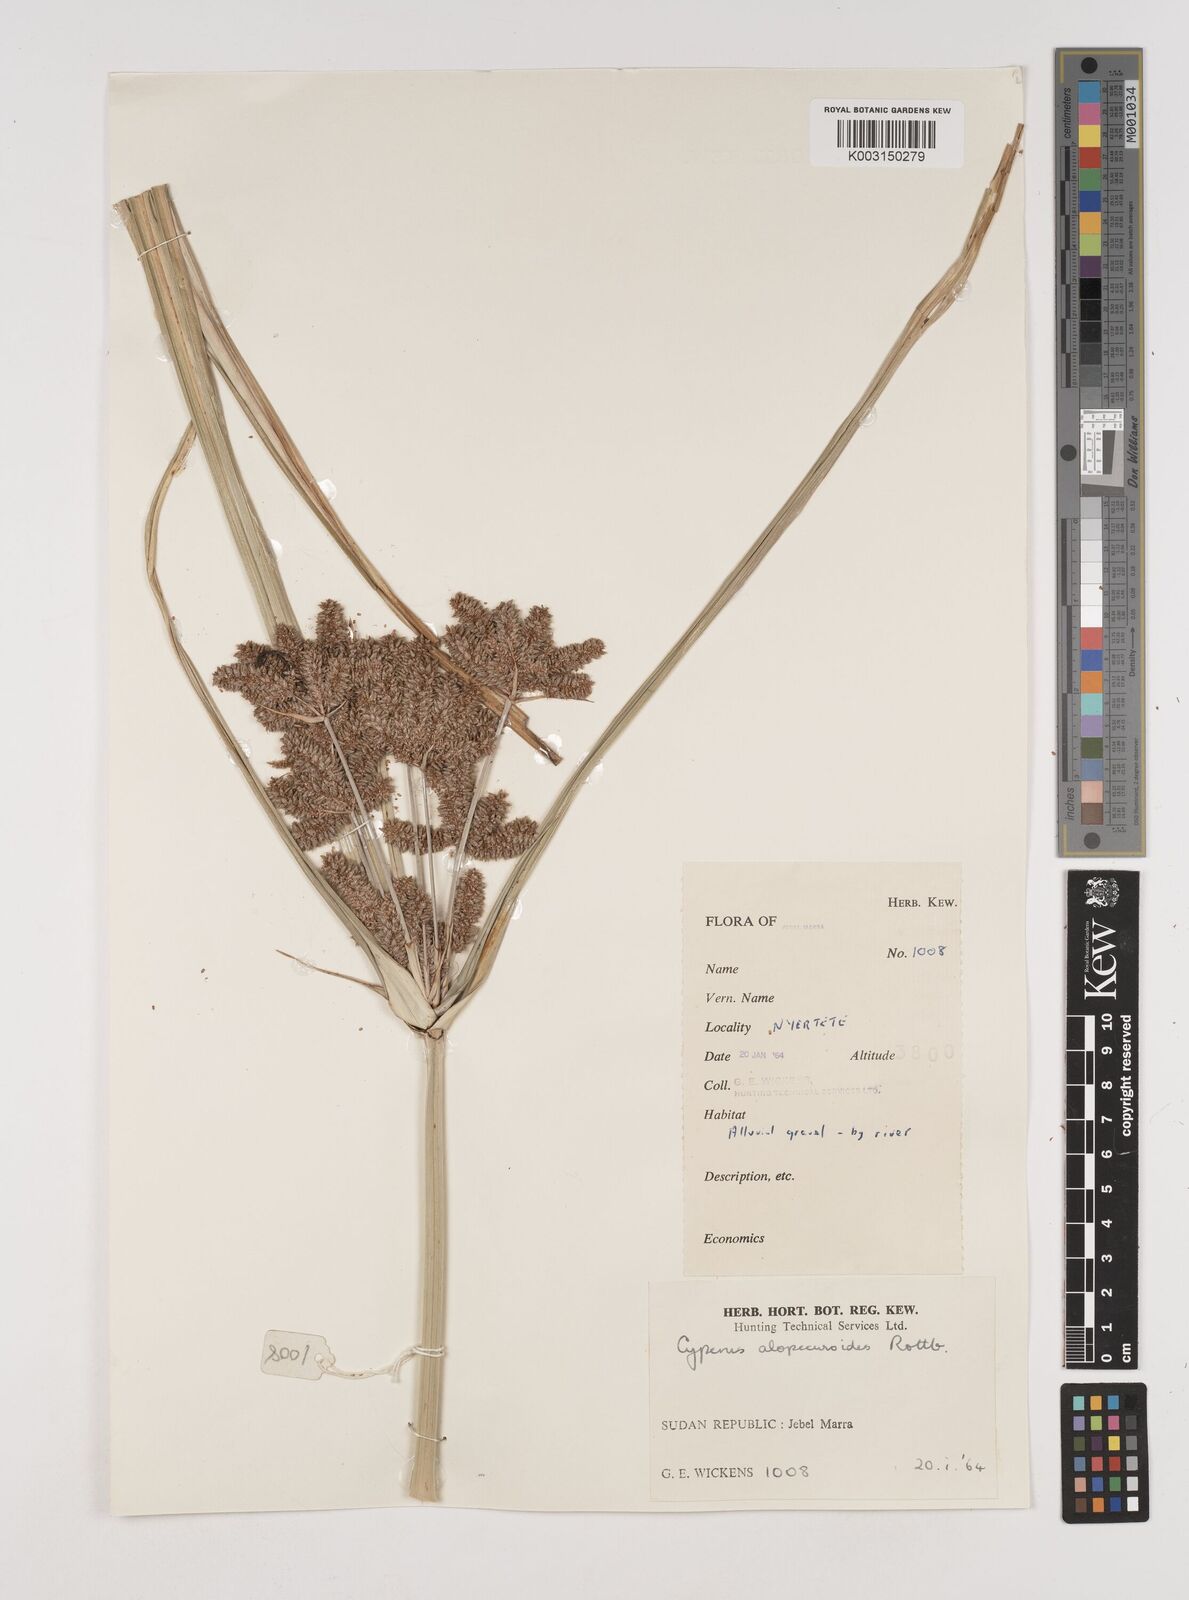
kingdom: Plantae
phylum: Tracheophyta
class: Liliopsida
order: Poales
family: Cyperaceae
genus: Cyperus
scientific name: Cyperus alopecuroides
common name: Foxtail flatsedge
